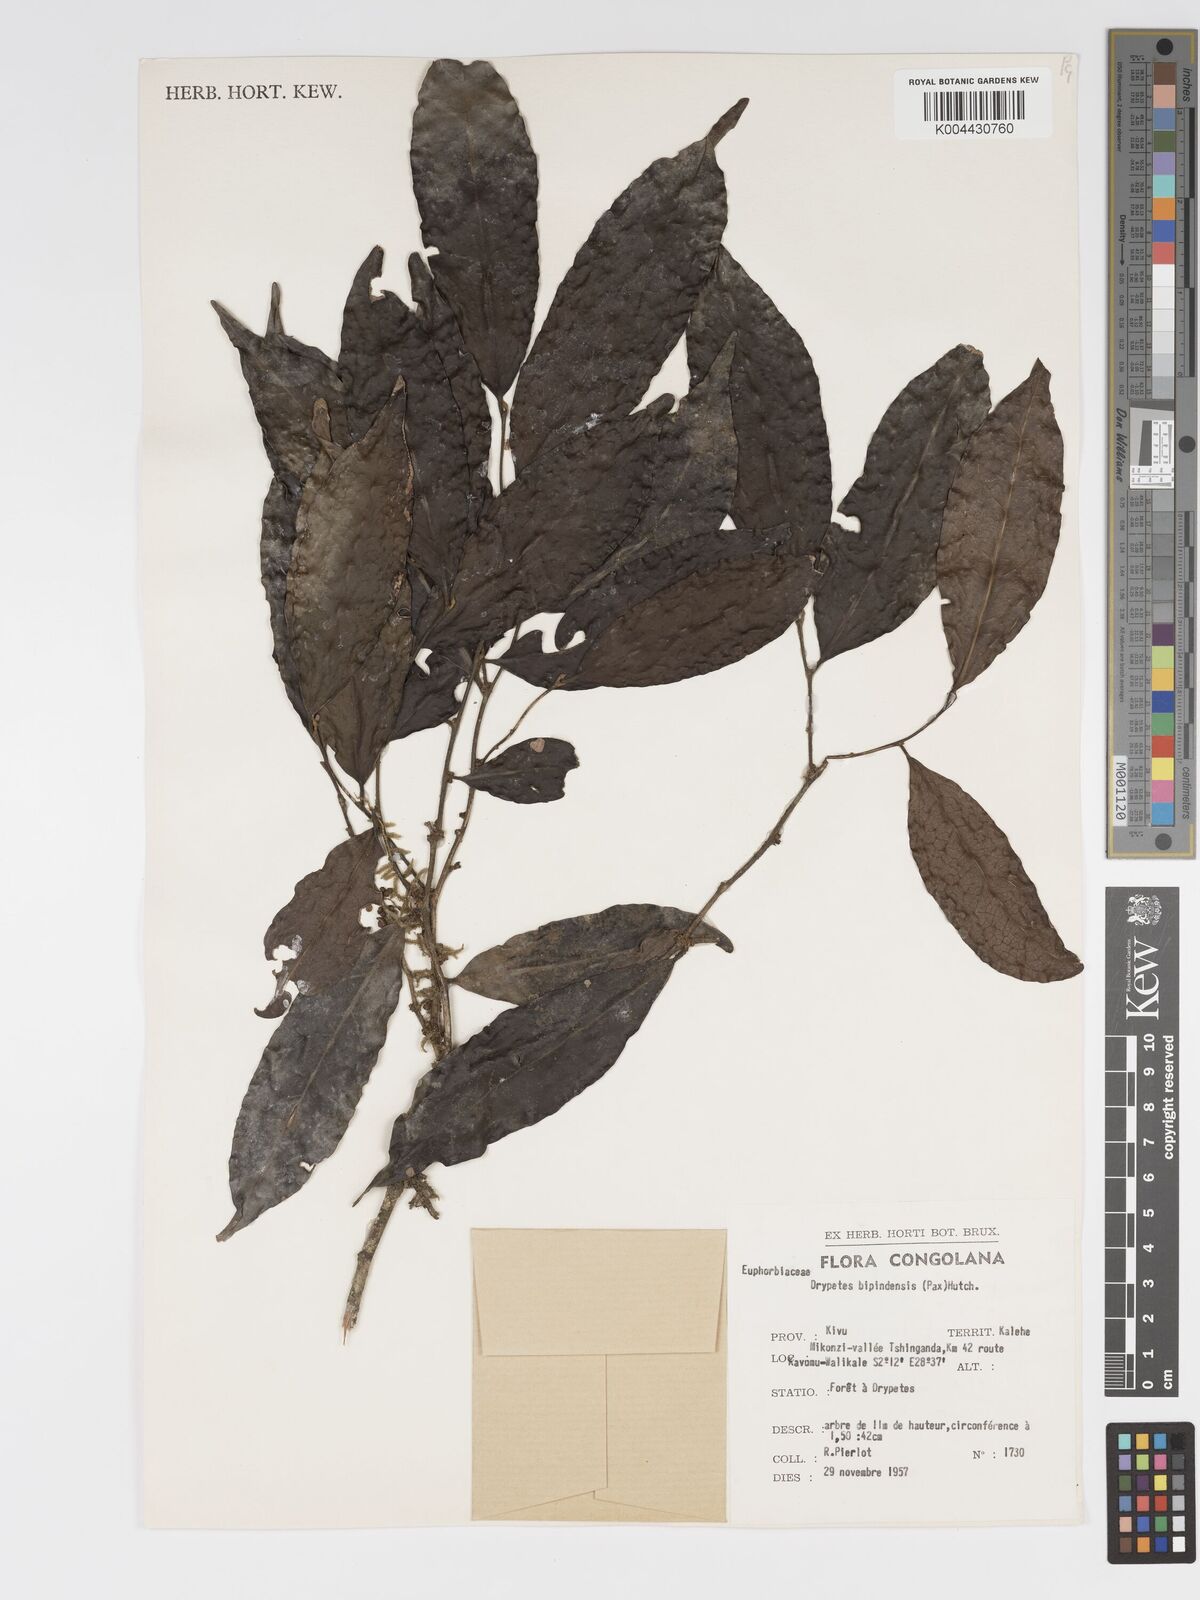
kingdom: Plantae
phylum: Tracheophyta
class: Magnoliopsida
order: Malpighiales
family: Putranjivaceae
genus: Drypetes
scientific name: Drypetes bipindensis
